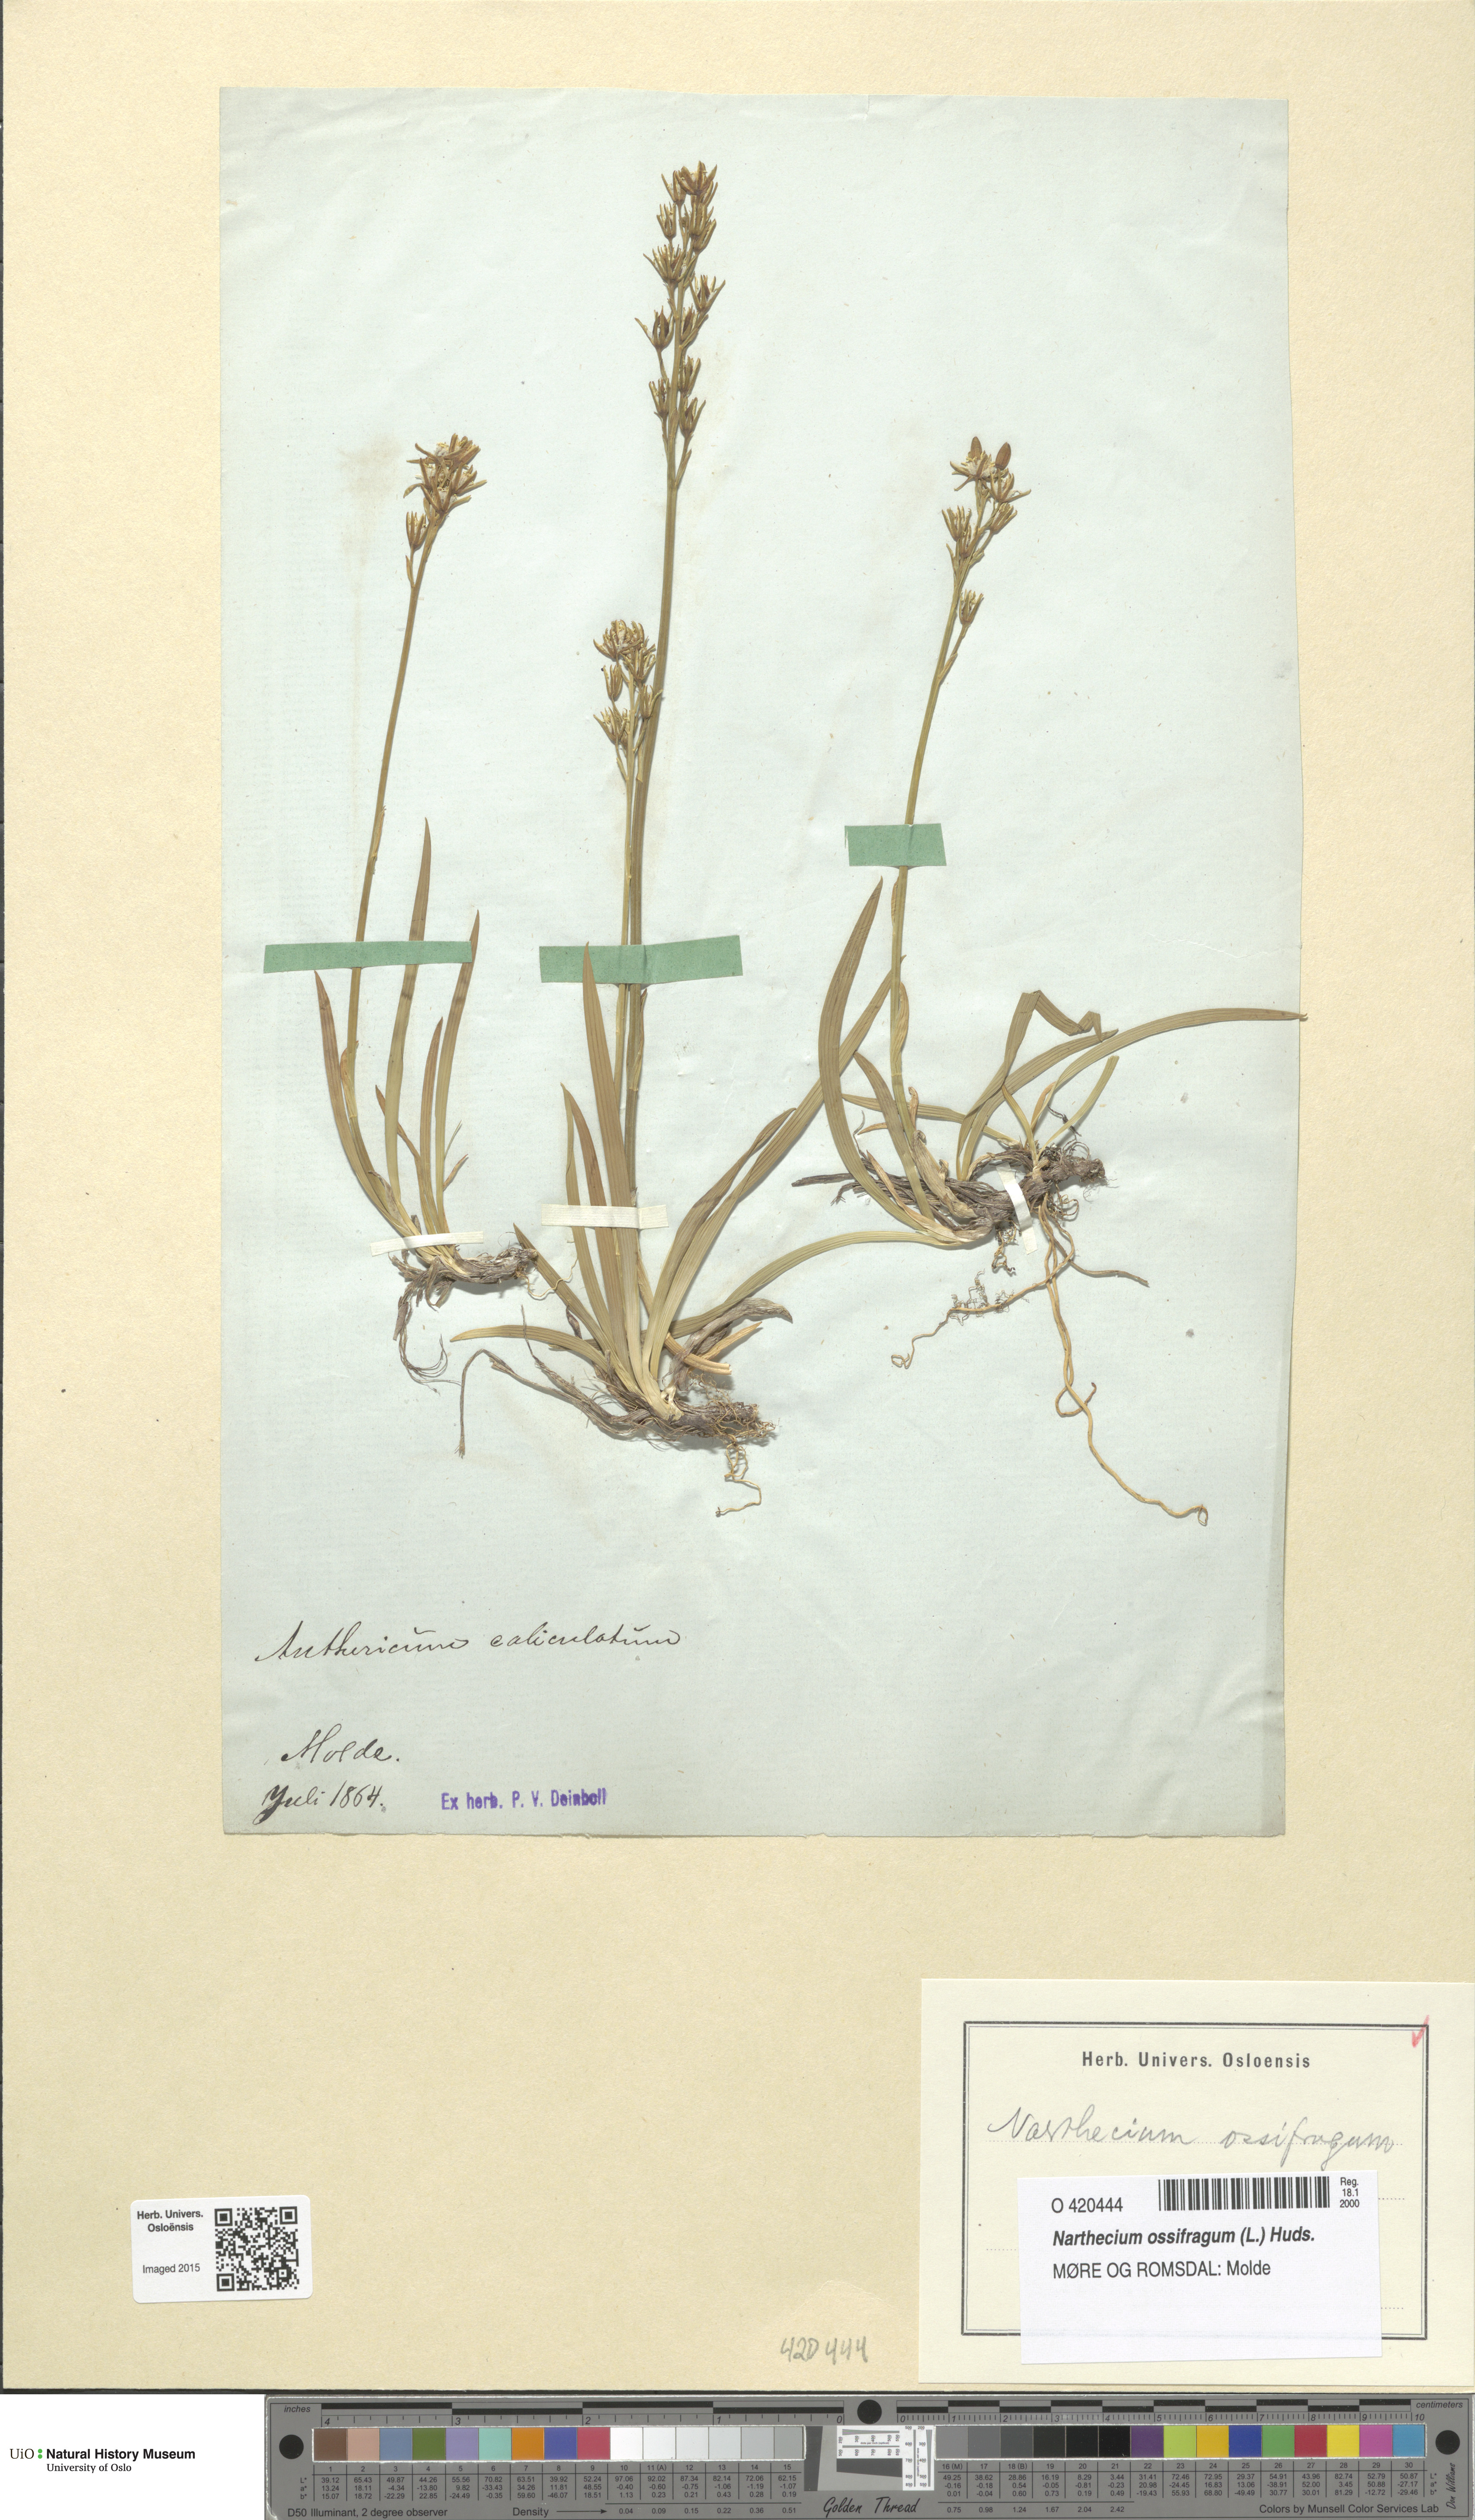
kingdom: Plantae
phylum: Tracheophyta
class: Liliopsida
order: Dioscoreales
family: Nartheciaceae
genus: Narthecium
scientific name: Narthecium ossifragum
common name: Bog asphodel
